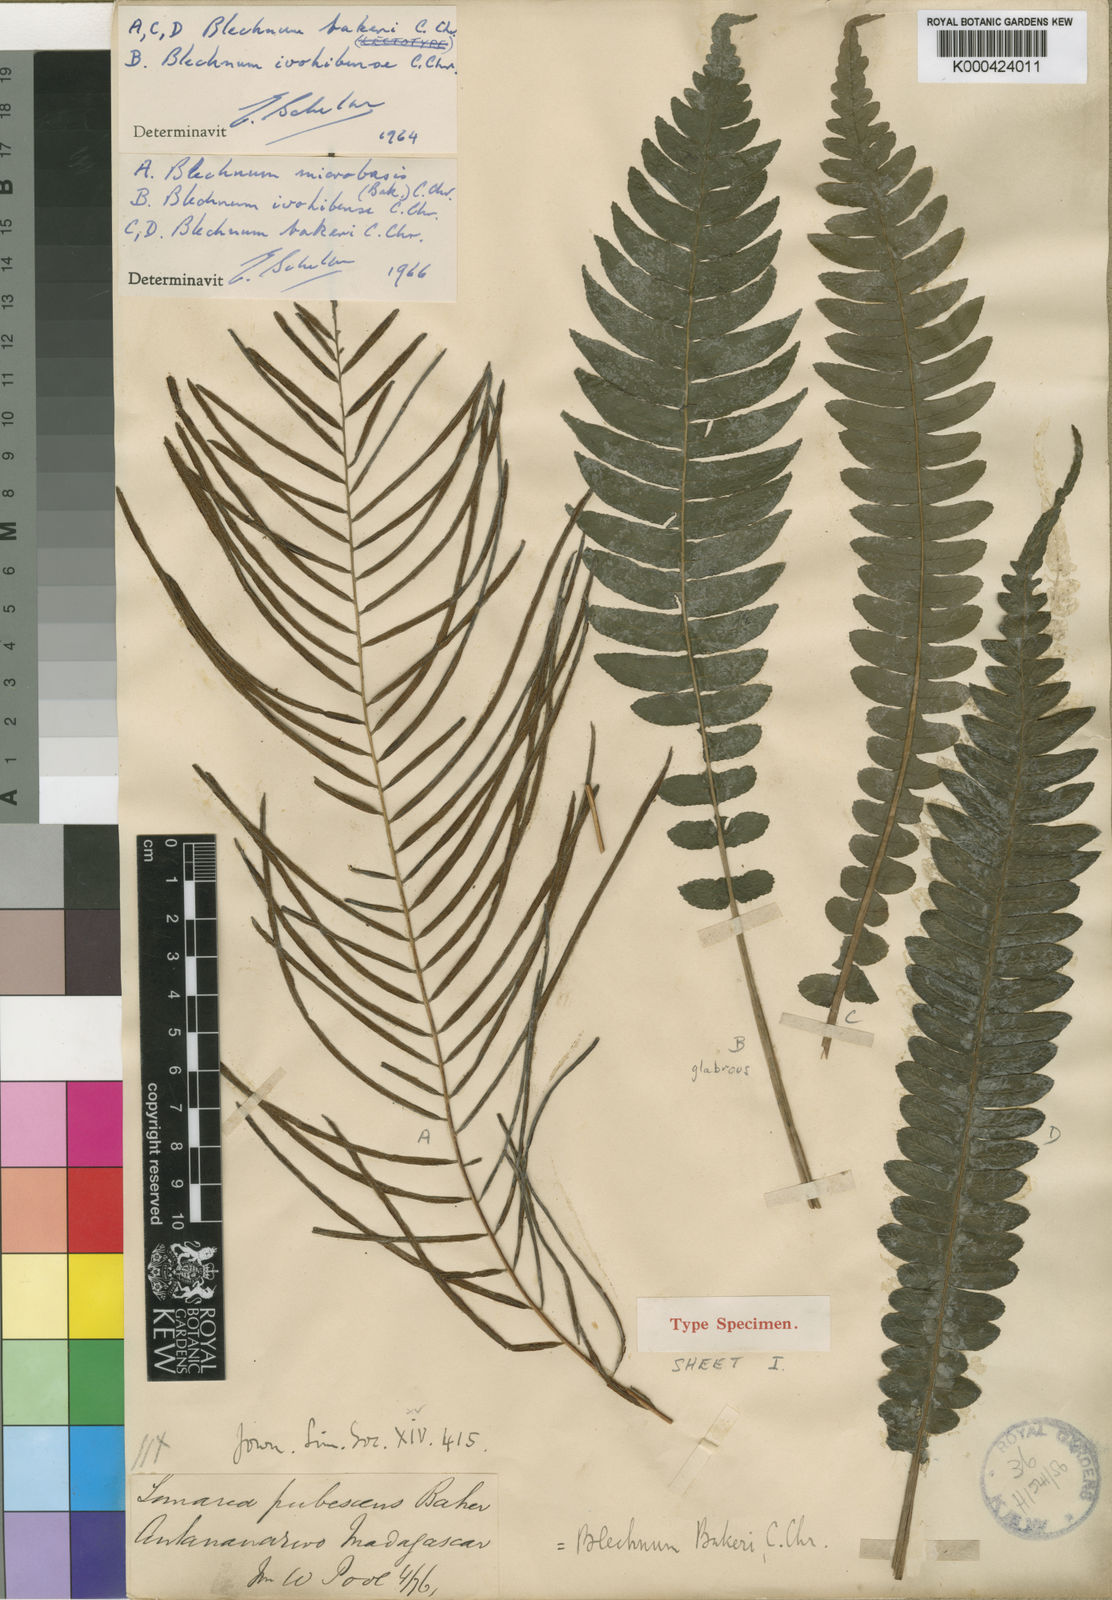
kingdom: Plantae
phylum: Tracheophyta
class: Polypodiopsida
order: Polypodiales
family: Blechnaceae
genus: Cranfillia
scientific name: Cranfillia bakeri
